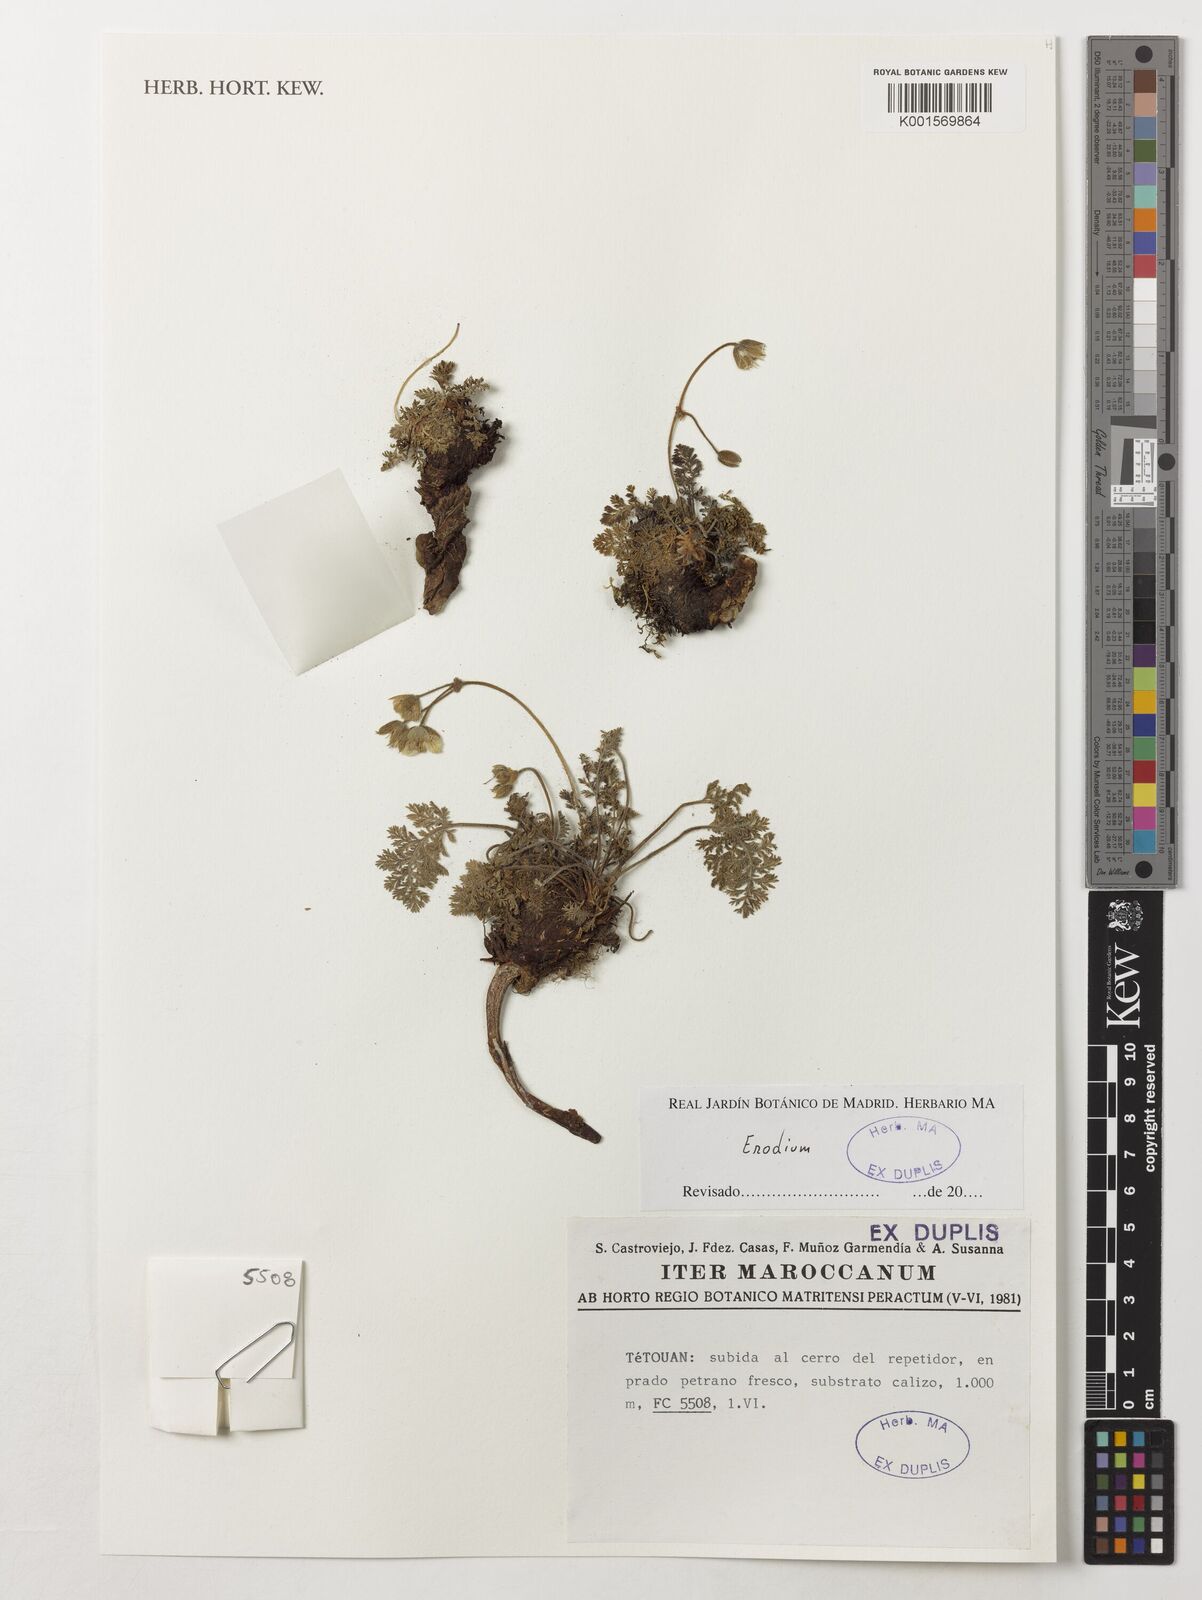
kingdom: Plantae
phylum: Tracheophyta
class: Magnoliopsida
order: Geraniales
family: Geraniaceae
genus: Erodium
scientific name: Erodium
